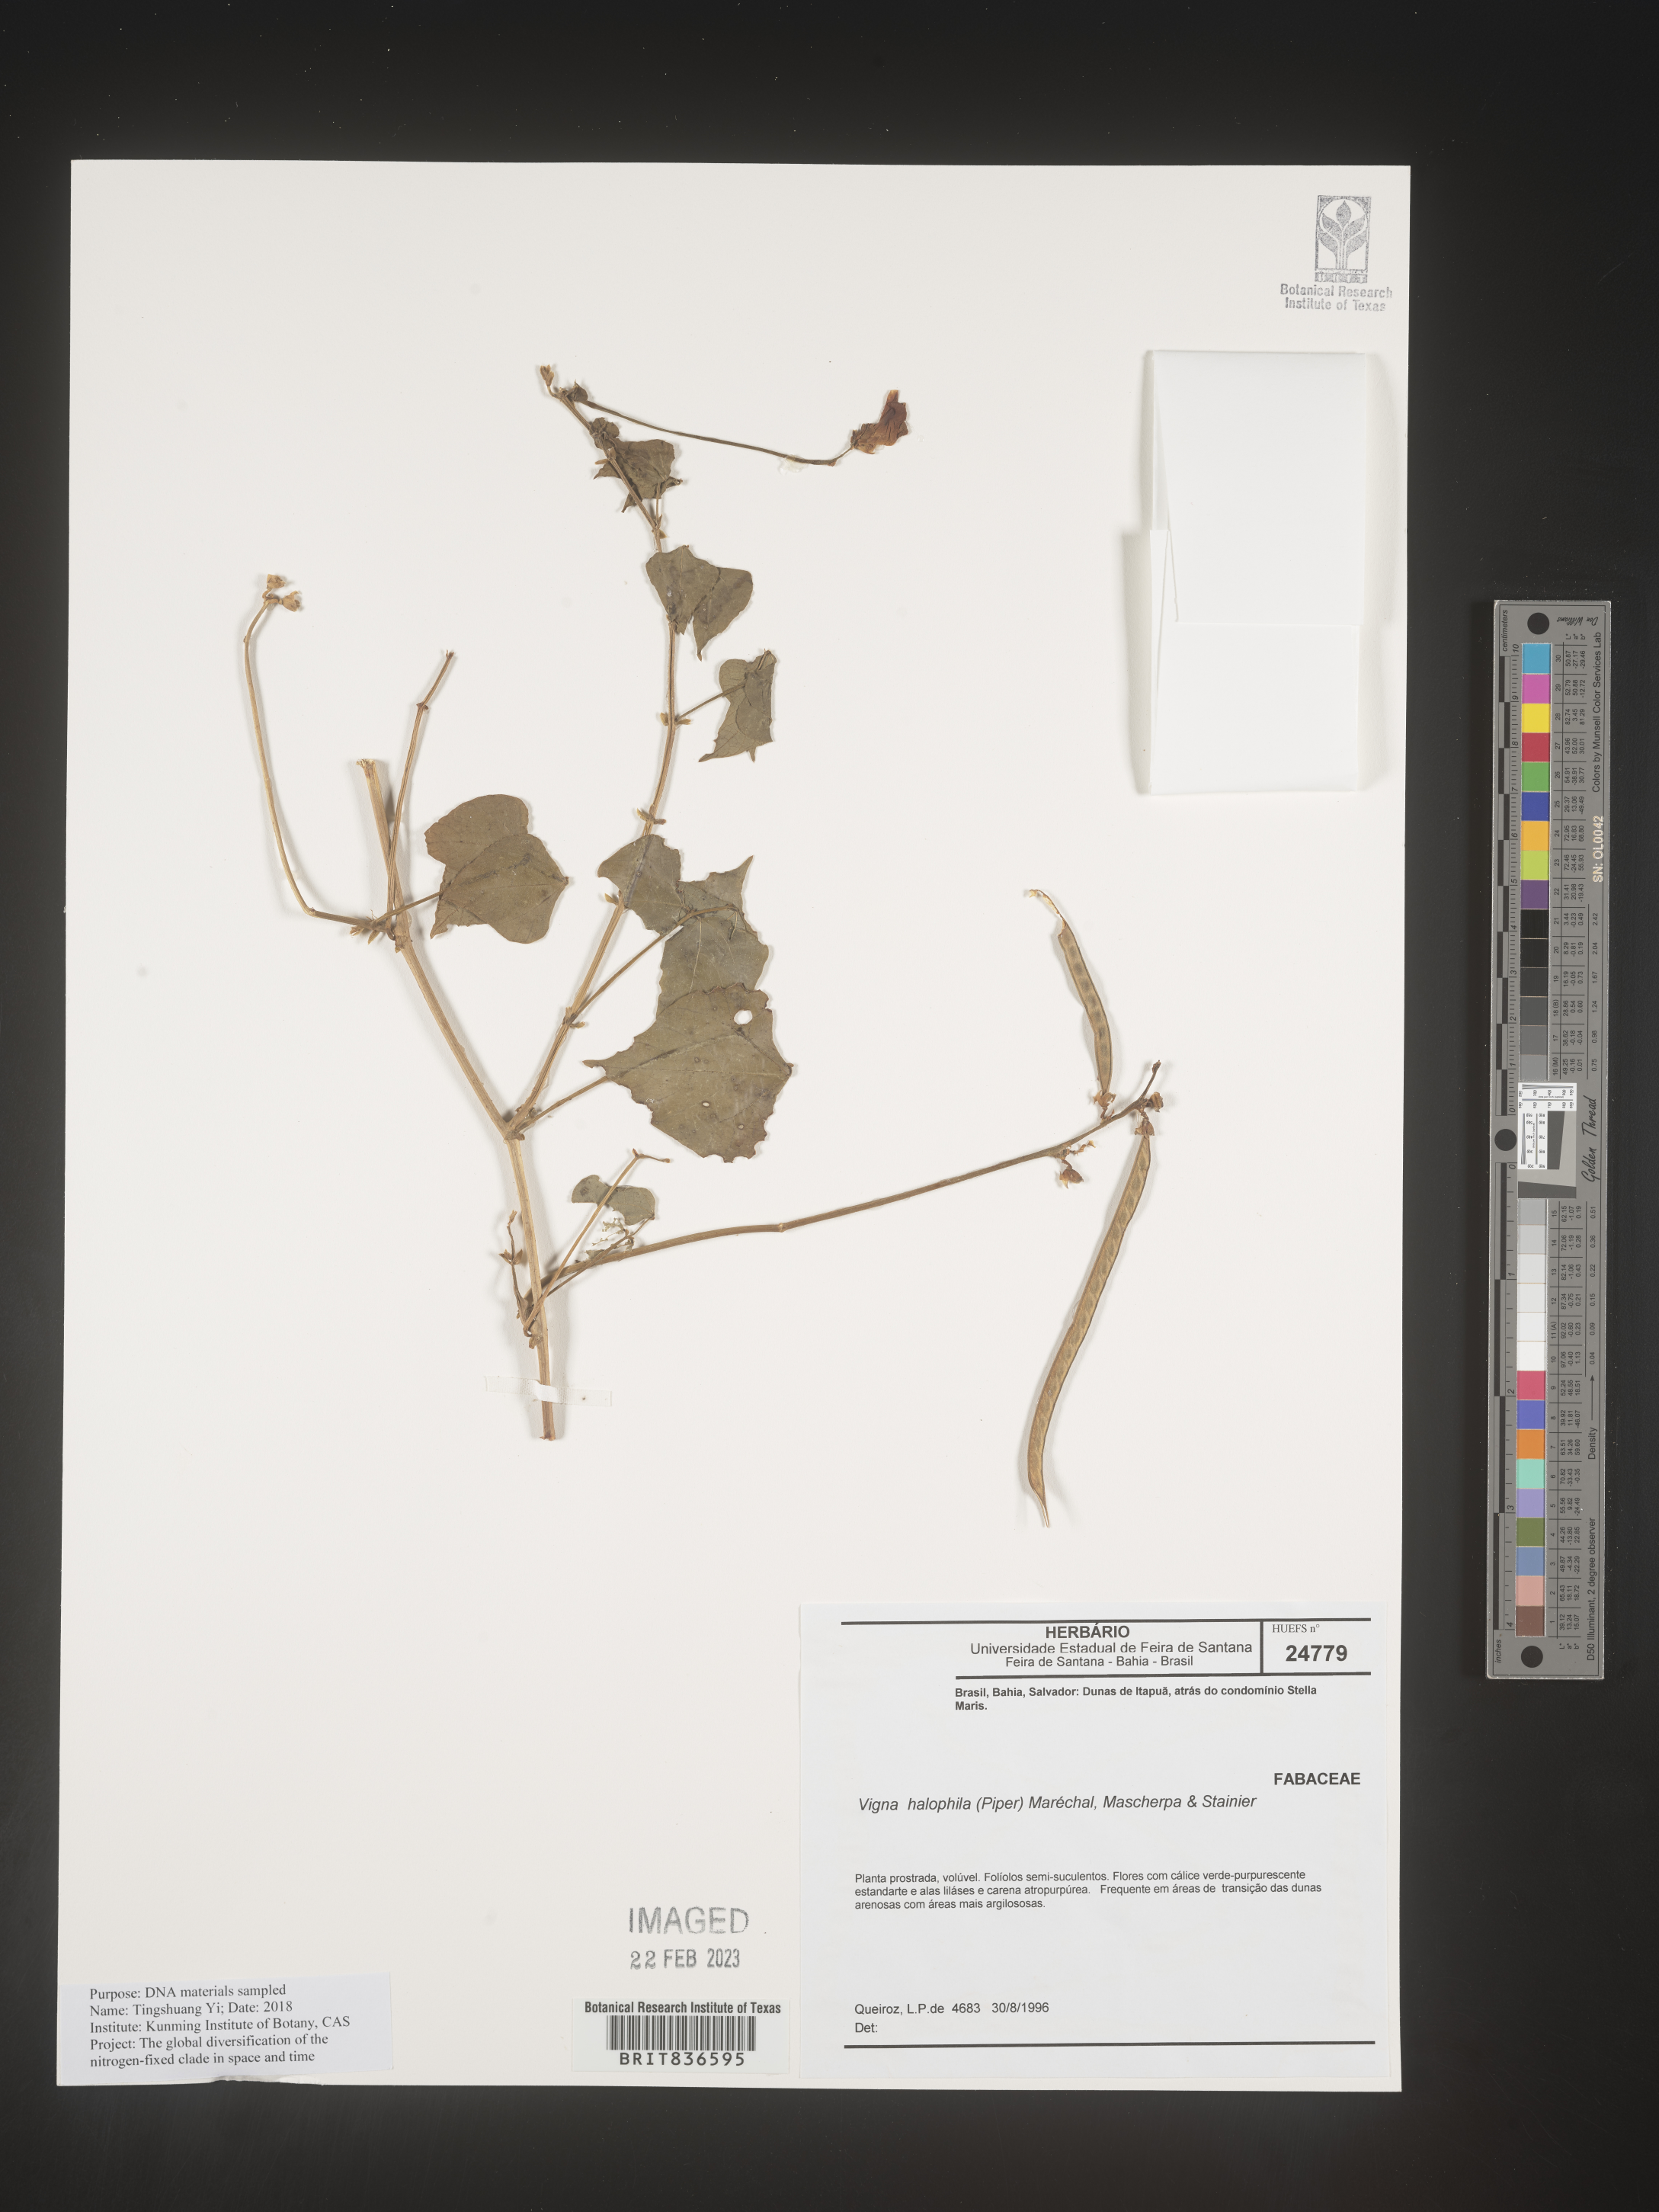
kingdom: Plantae
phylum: Tracheophyta
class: Magnoliopsida
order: Fabales
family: Fabaceae
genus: Vigna
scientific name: Vigna
